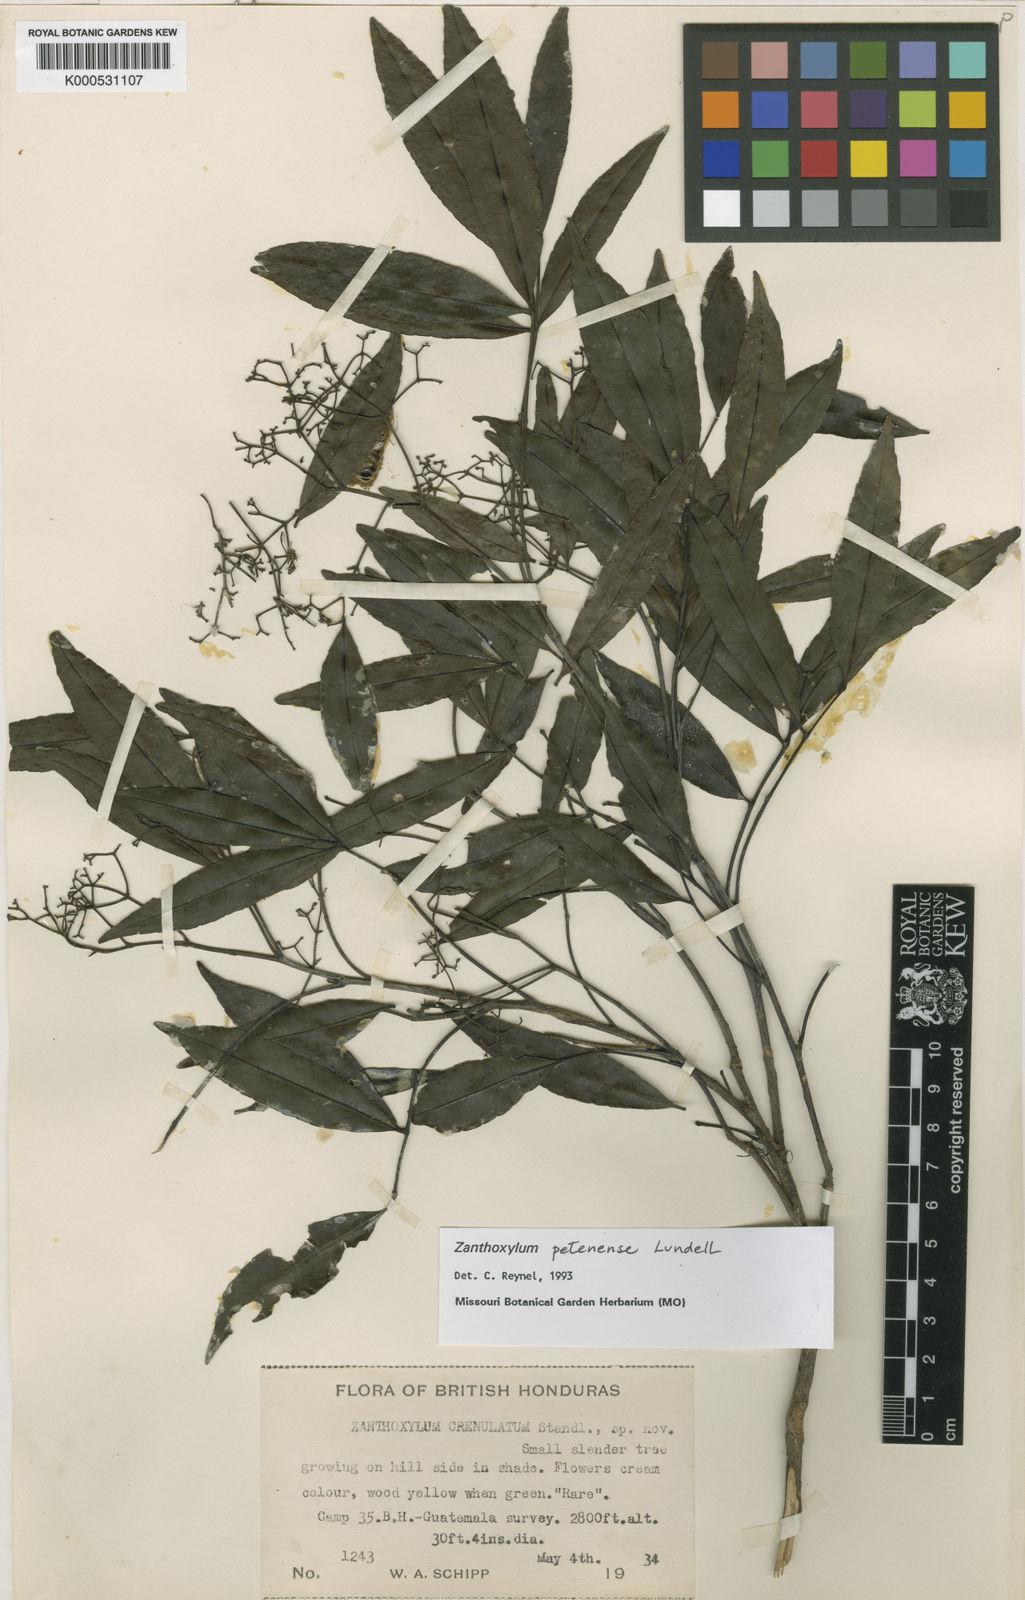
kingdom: Plantae
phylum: Tracheophyta
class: Magnoliopsida
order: Sapindales
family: Rutaceae
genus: Zanthoxylum
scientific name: Zanthoxylum petenense
